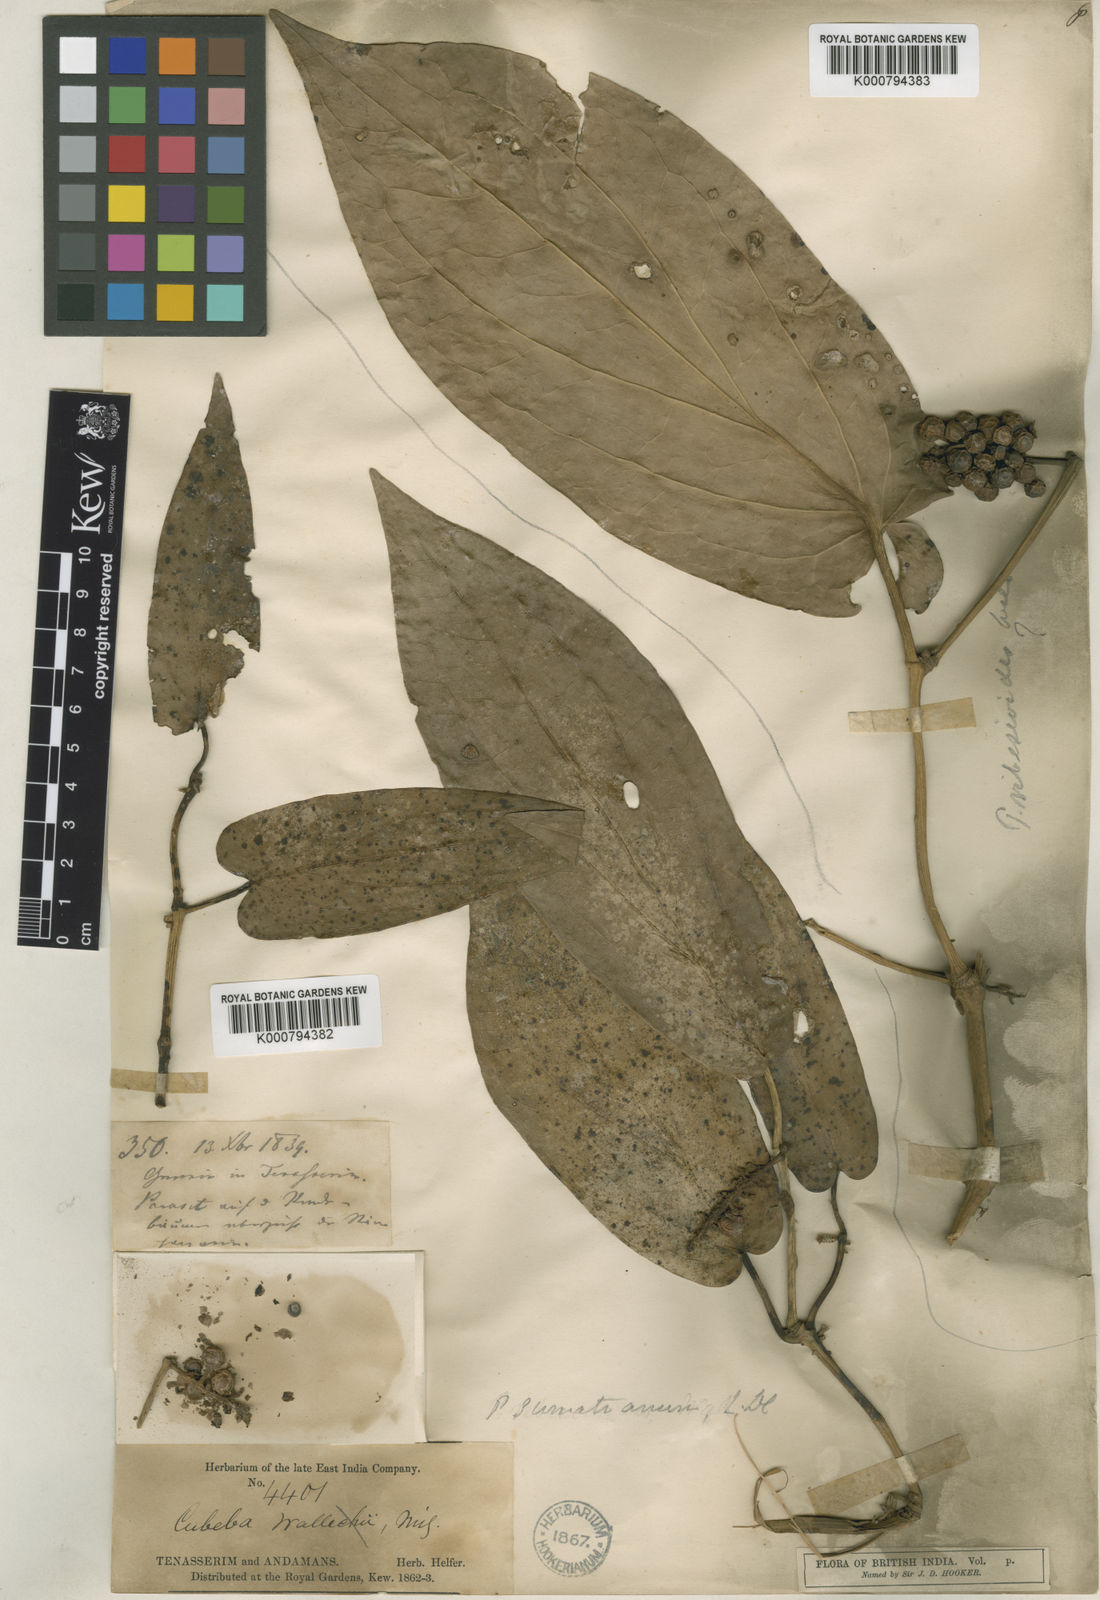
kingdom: Plantae
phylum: Tracheophyta
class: Magnoliopsida
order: Piperales
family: Piperaceae
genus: Piper
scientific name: Piper ribesioides
